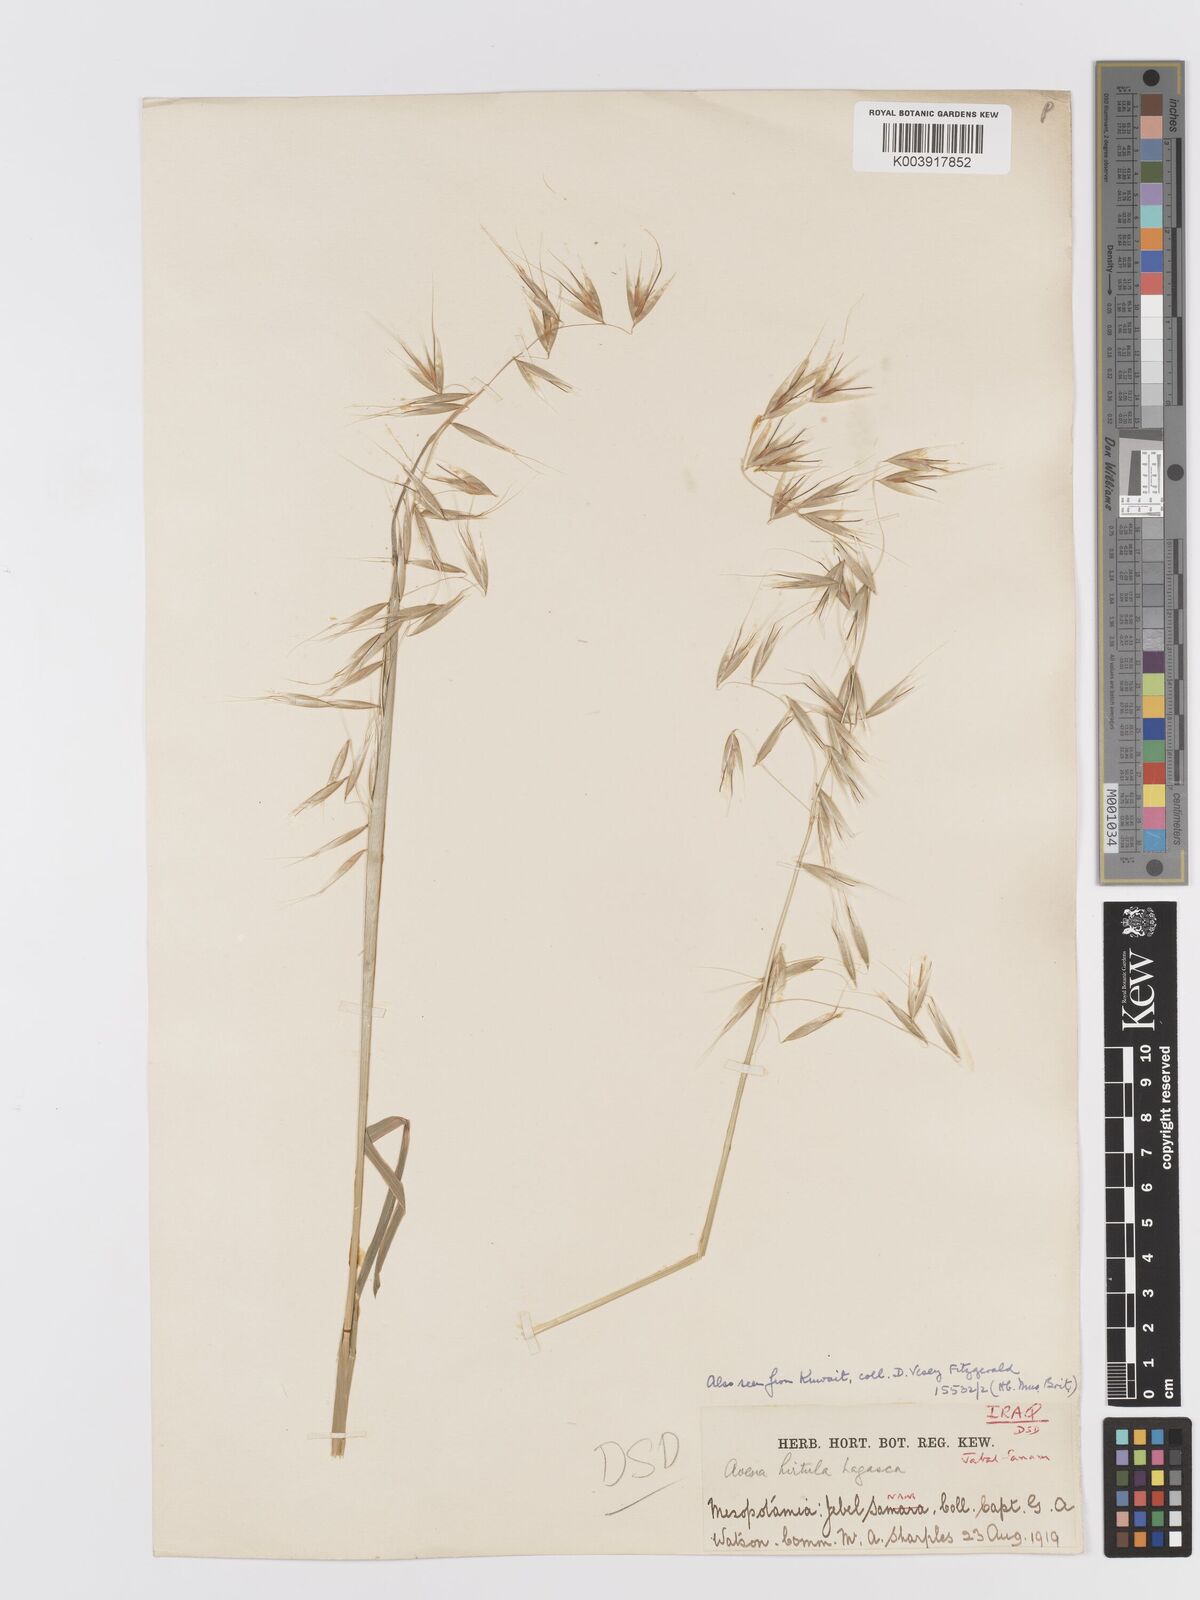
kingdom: Plantae
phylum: Tracheophyta
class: Liliopsida
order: Poales
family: Poaceae
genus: Avena
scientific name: Avena
